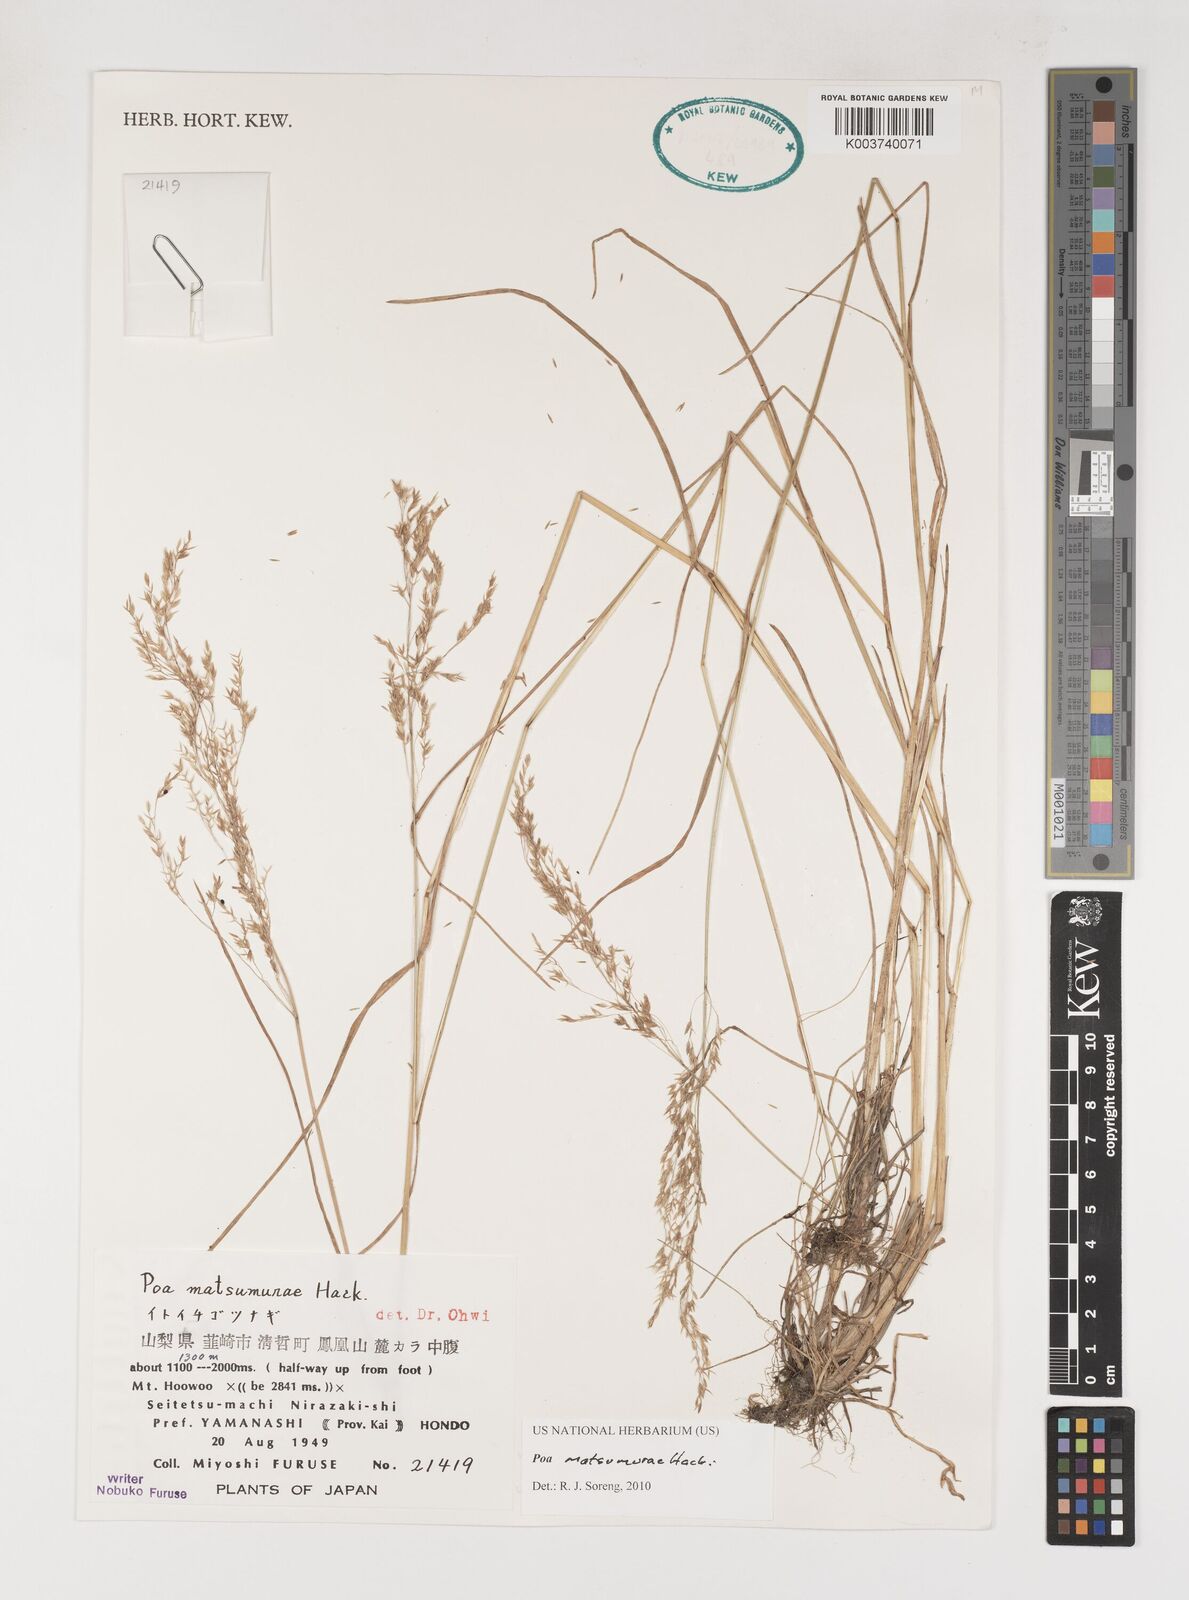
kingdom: Plantae
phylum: Tracheophyta
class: Liliopsida
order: Poales
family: Poaceae
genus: Poa
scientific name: Poa matsumurae
